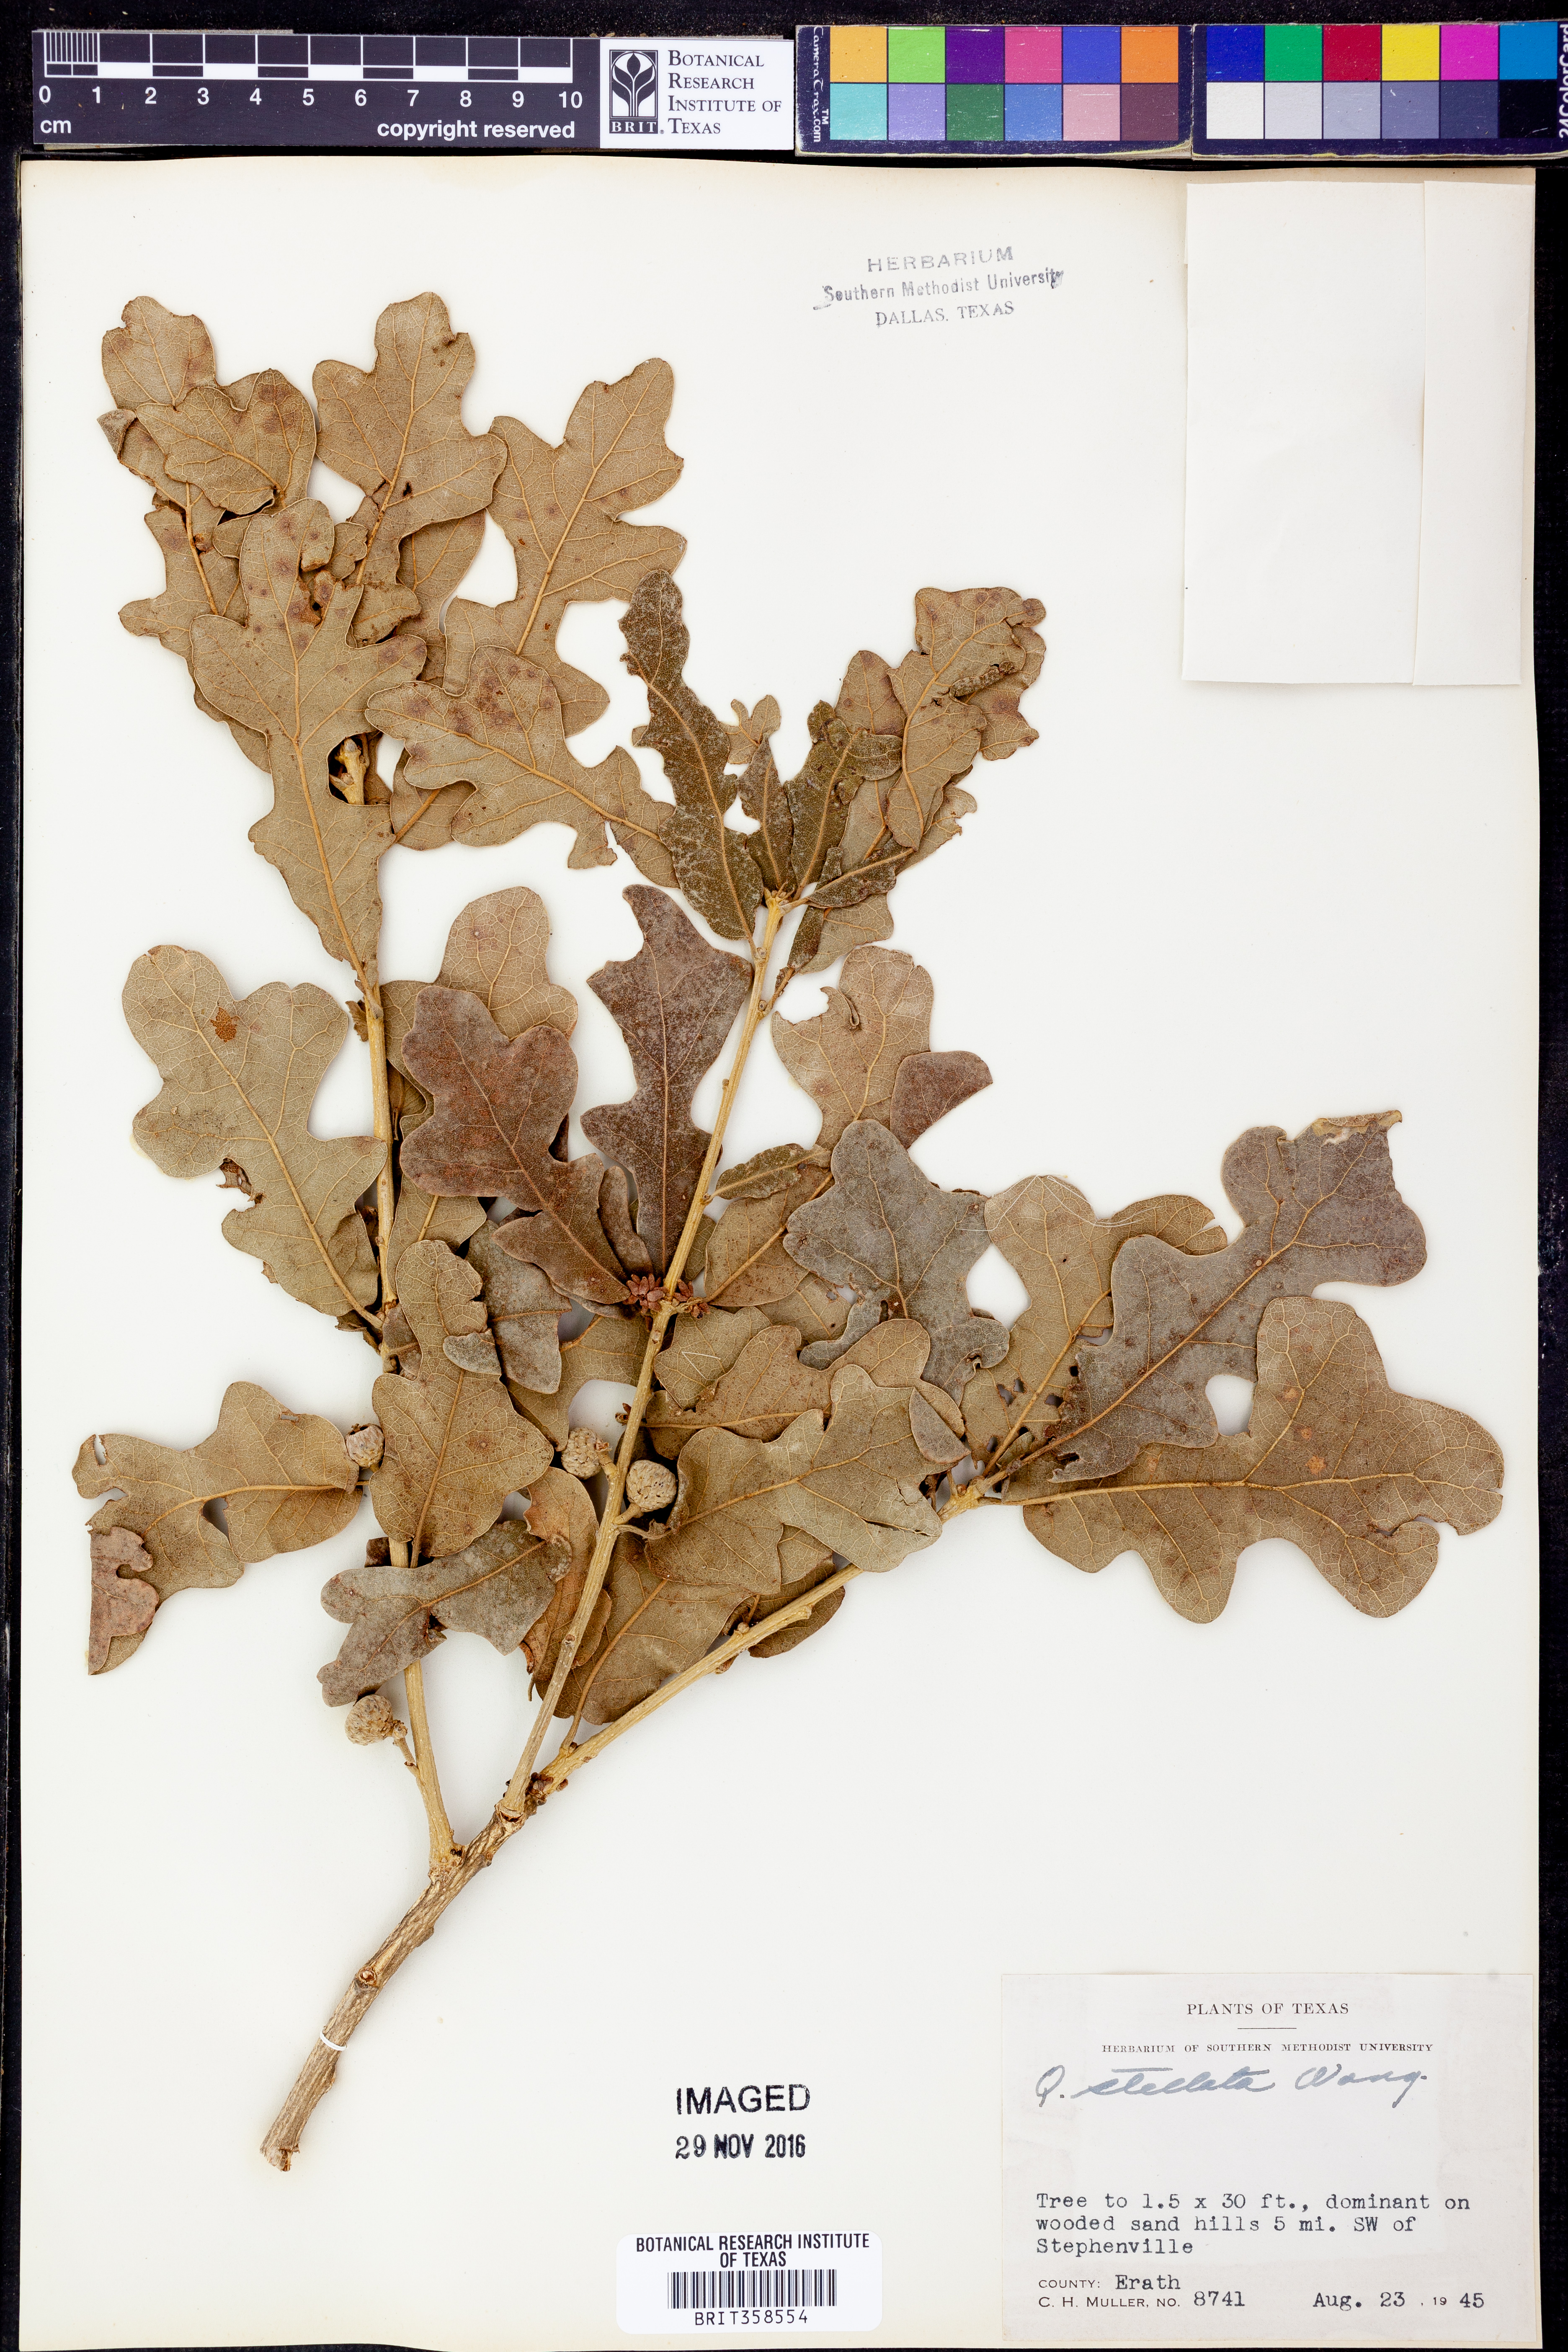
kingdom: Plantae
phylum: Tracheophyta
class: Magnoliopsida
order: Fagales
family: Fagaceae
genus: Quercus
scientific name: Quercus stellata
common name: Post oak
